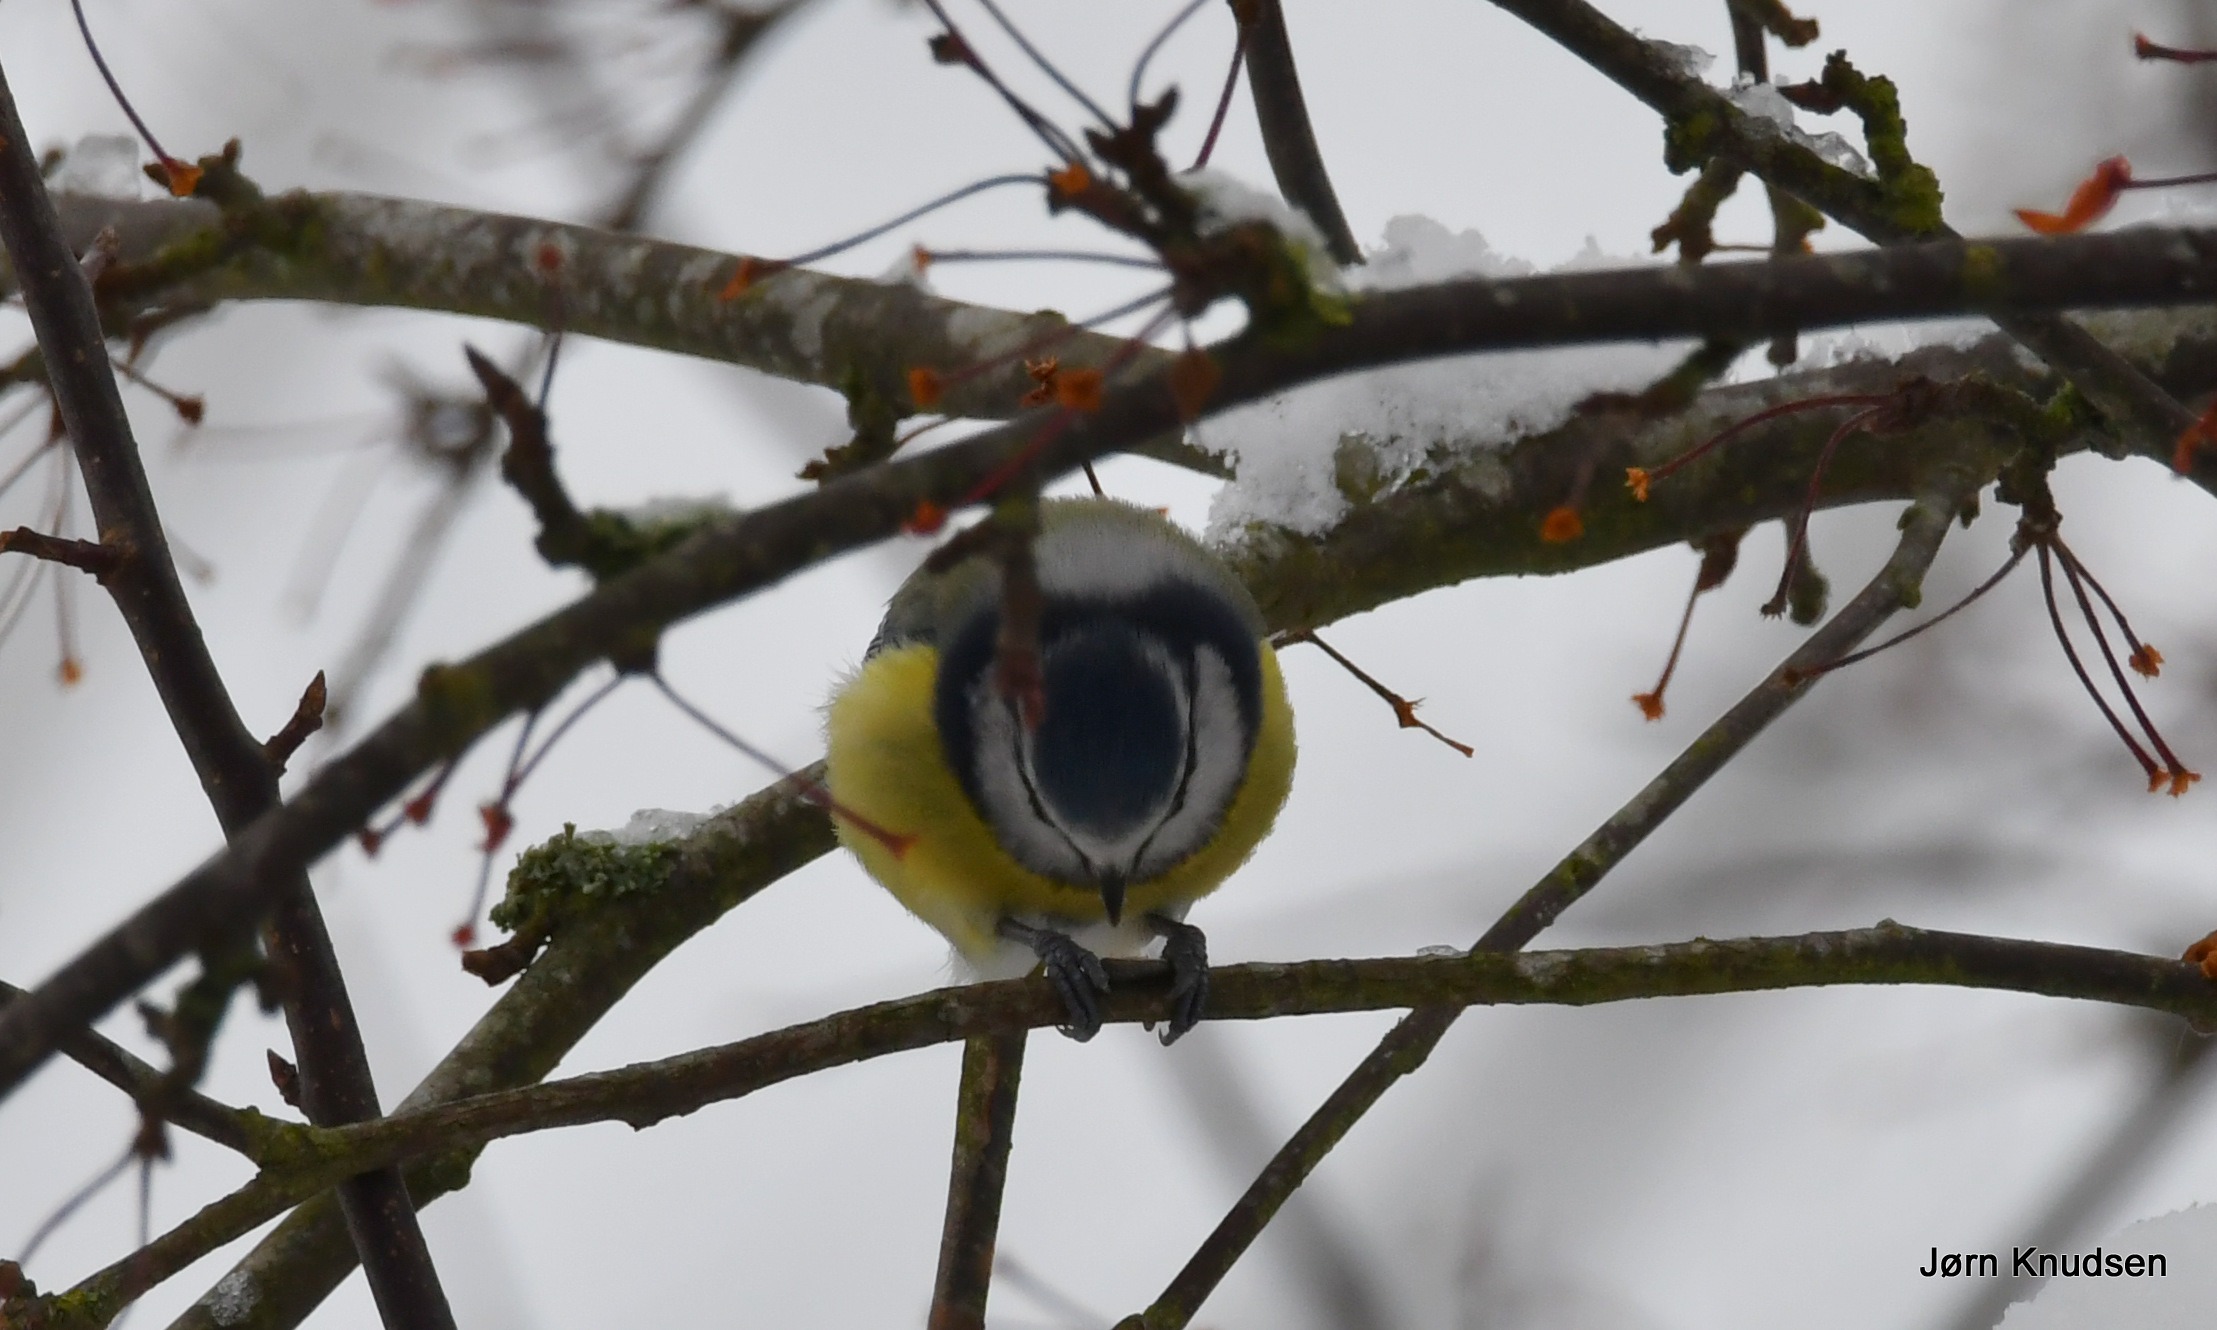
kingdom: Animalia
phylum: Chordata
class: Aves
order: Passeriformes
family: Paridae
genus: Cyanistes
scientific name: Cyanistes caeruleus
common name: Blåmejse
